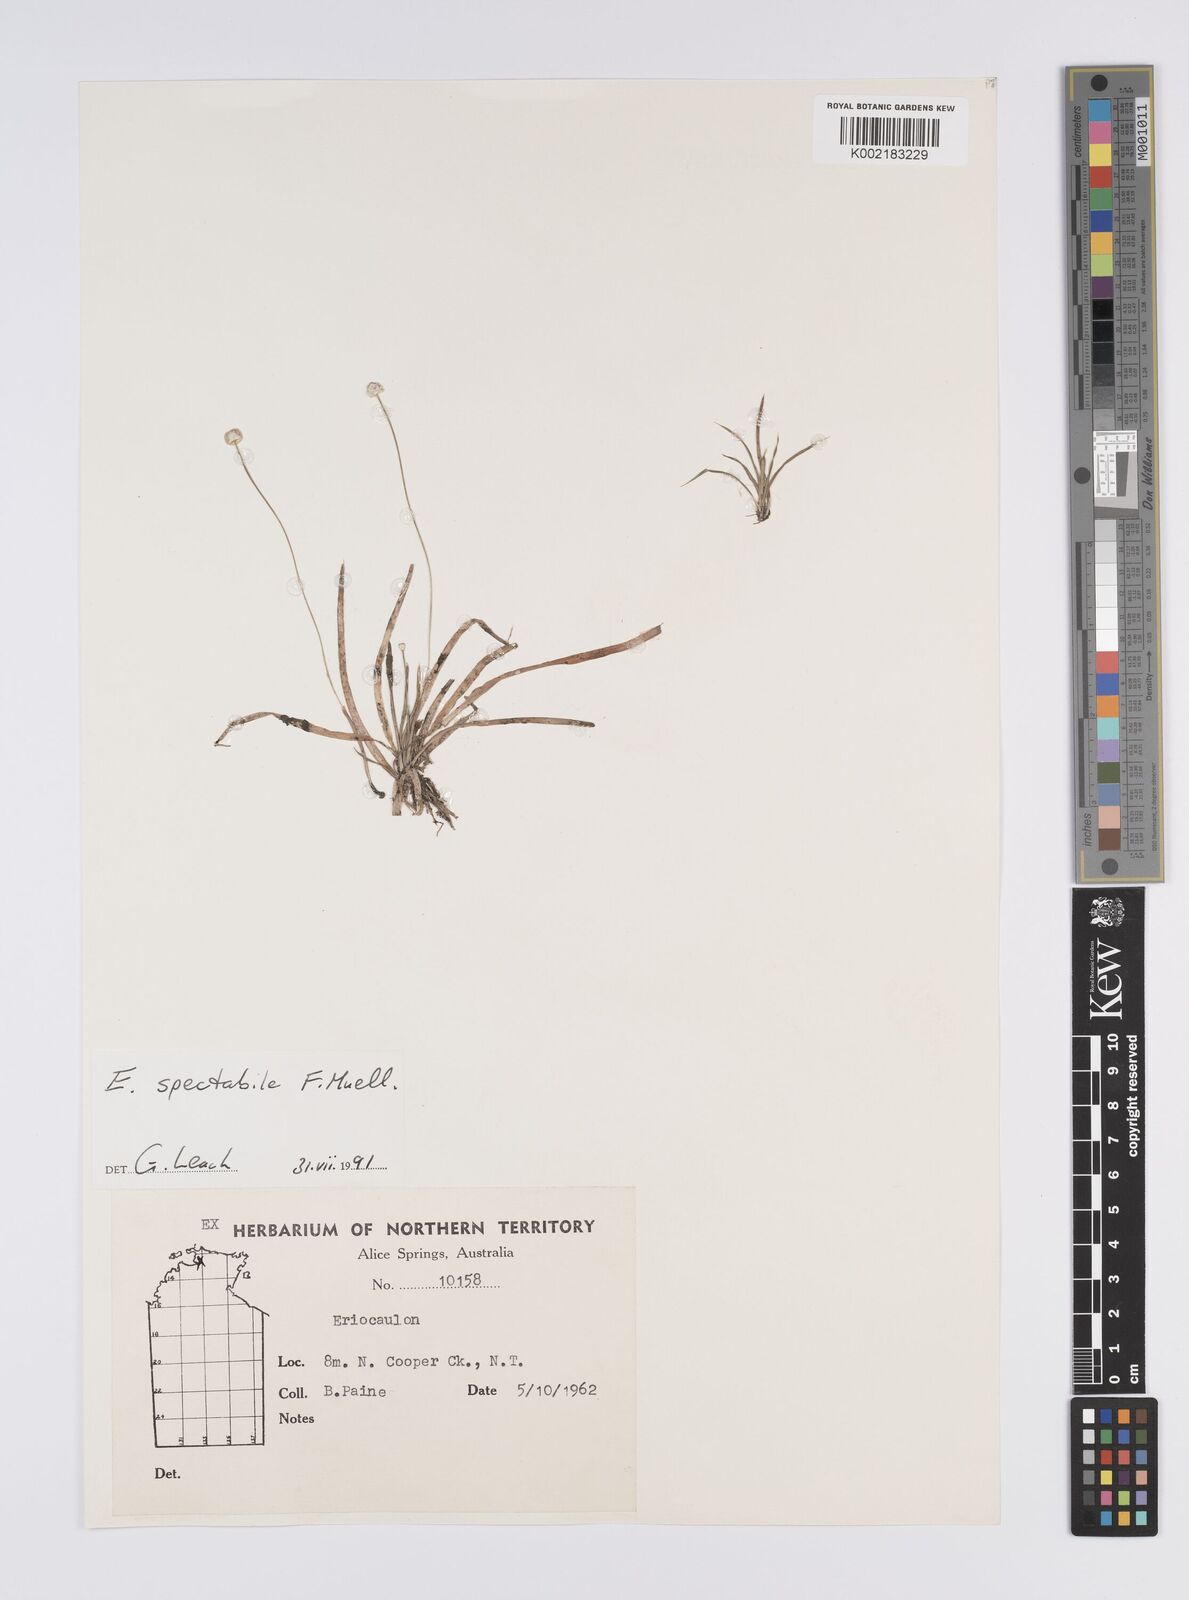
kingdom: Plantae
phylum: Tracheophyta
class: Liliopsida
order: Poales
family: Eriocaulaceae
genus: Eriocaulon
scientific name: Eriocaulon spectabile
